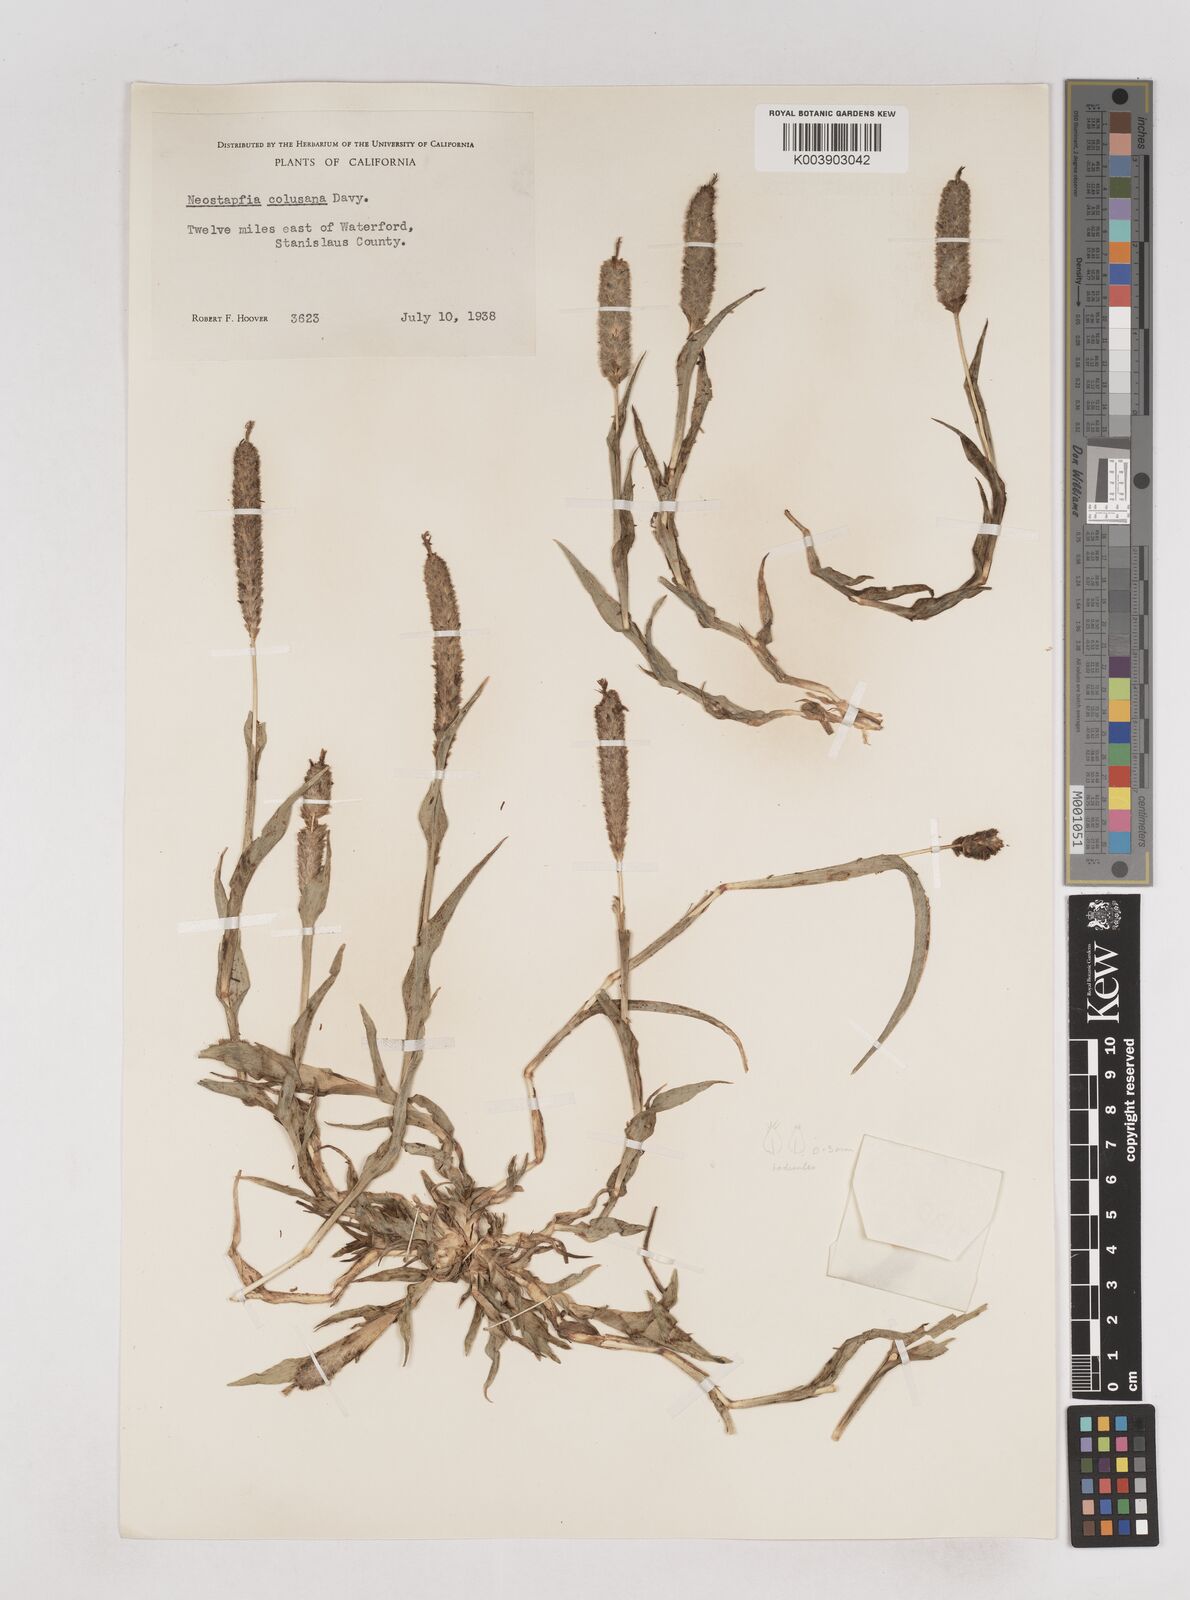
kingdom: Plantae
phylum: Tracheophyta
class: Liliopsida
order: Poales
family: Poaceae
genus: Neostapfia
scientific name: Neostapfia colusana
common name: Colusa grass
